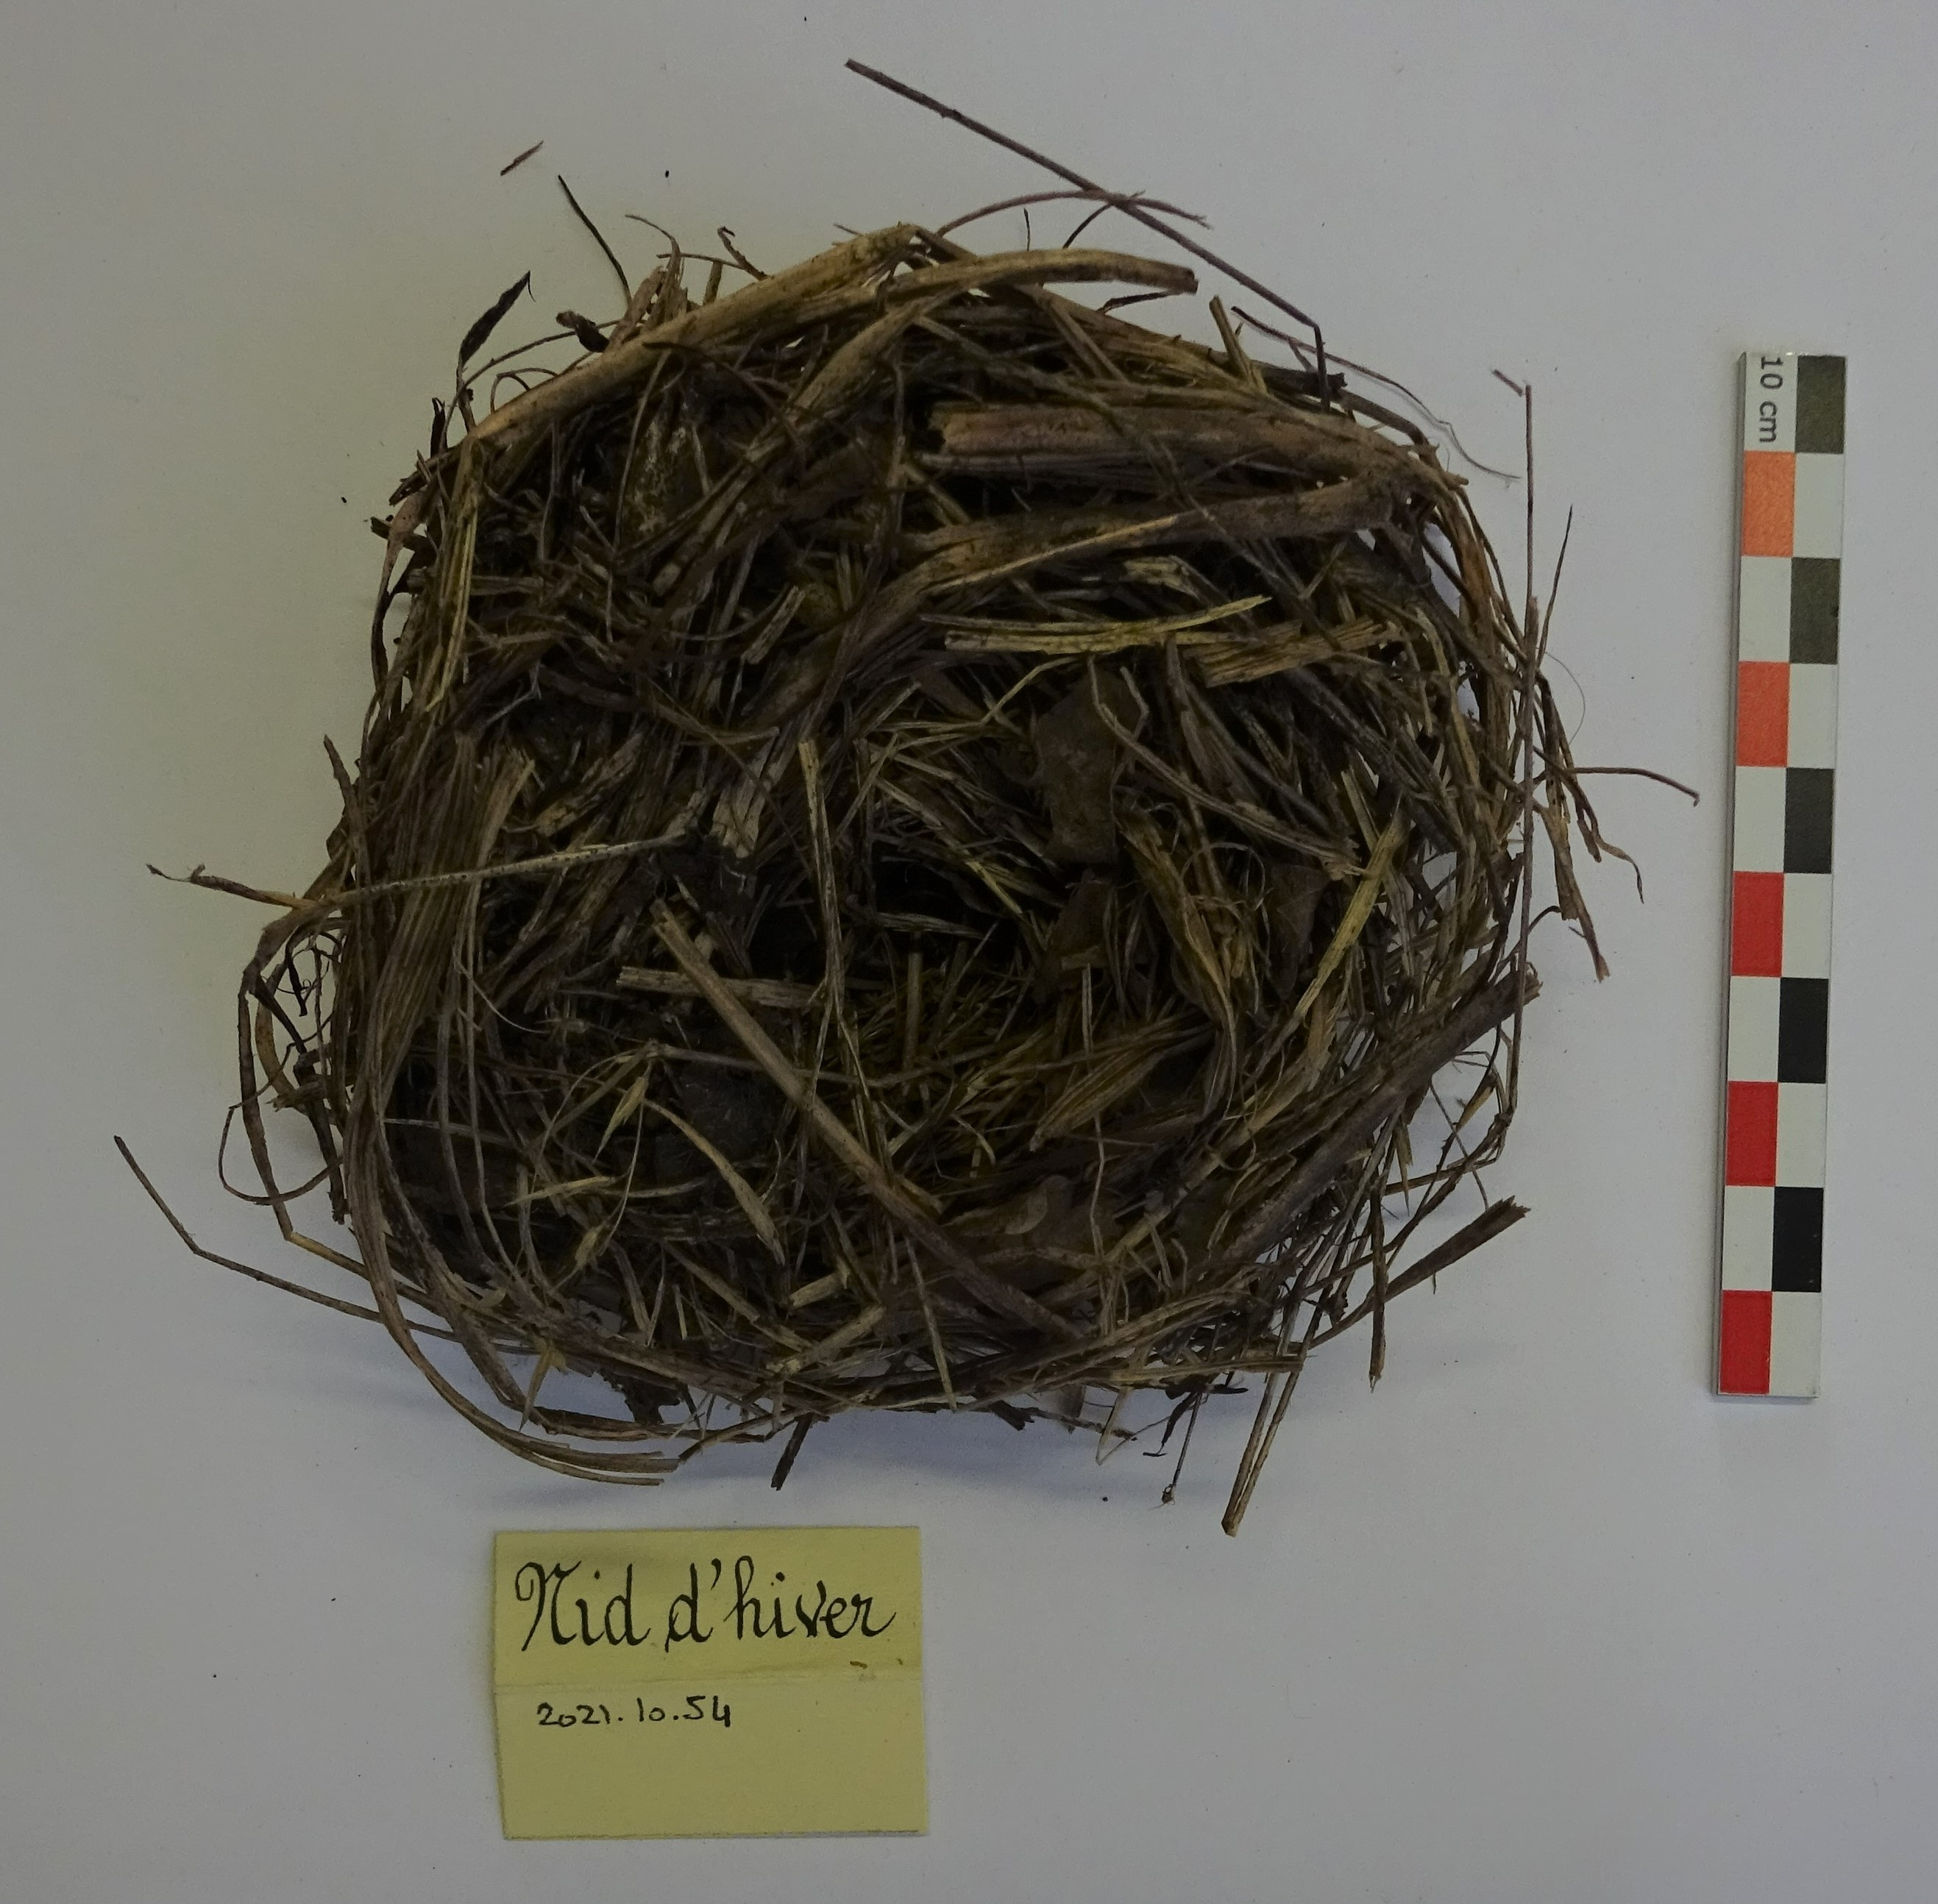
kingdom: Animalia
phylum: Chordata
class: Mammalia
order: Rodentia
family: Gliridae
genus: Muscardinus
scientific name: Muscardinus avellanarius
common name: Hazel dormouse
